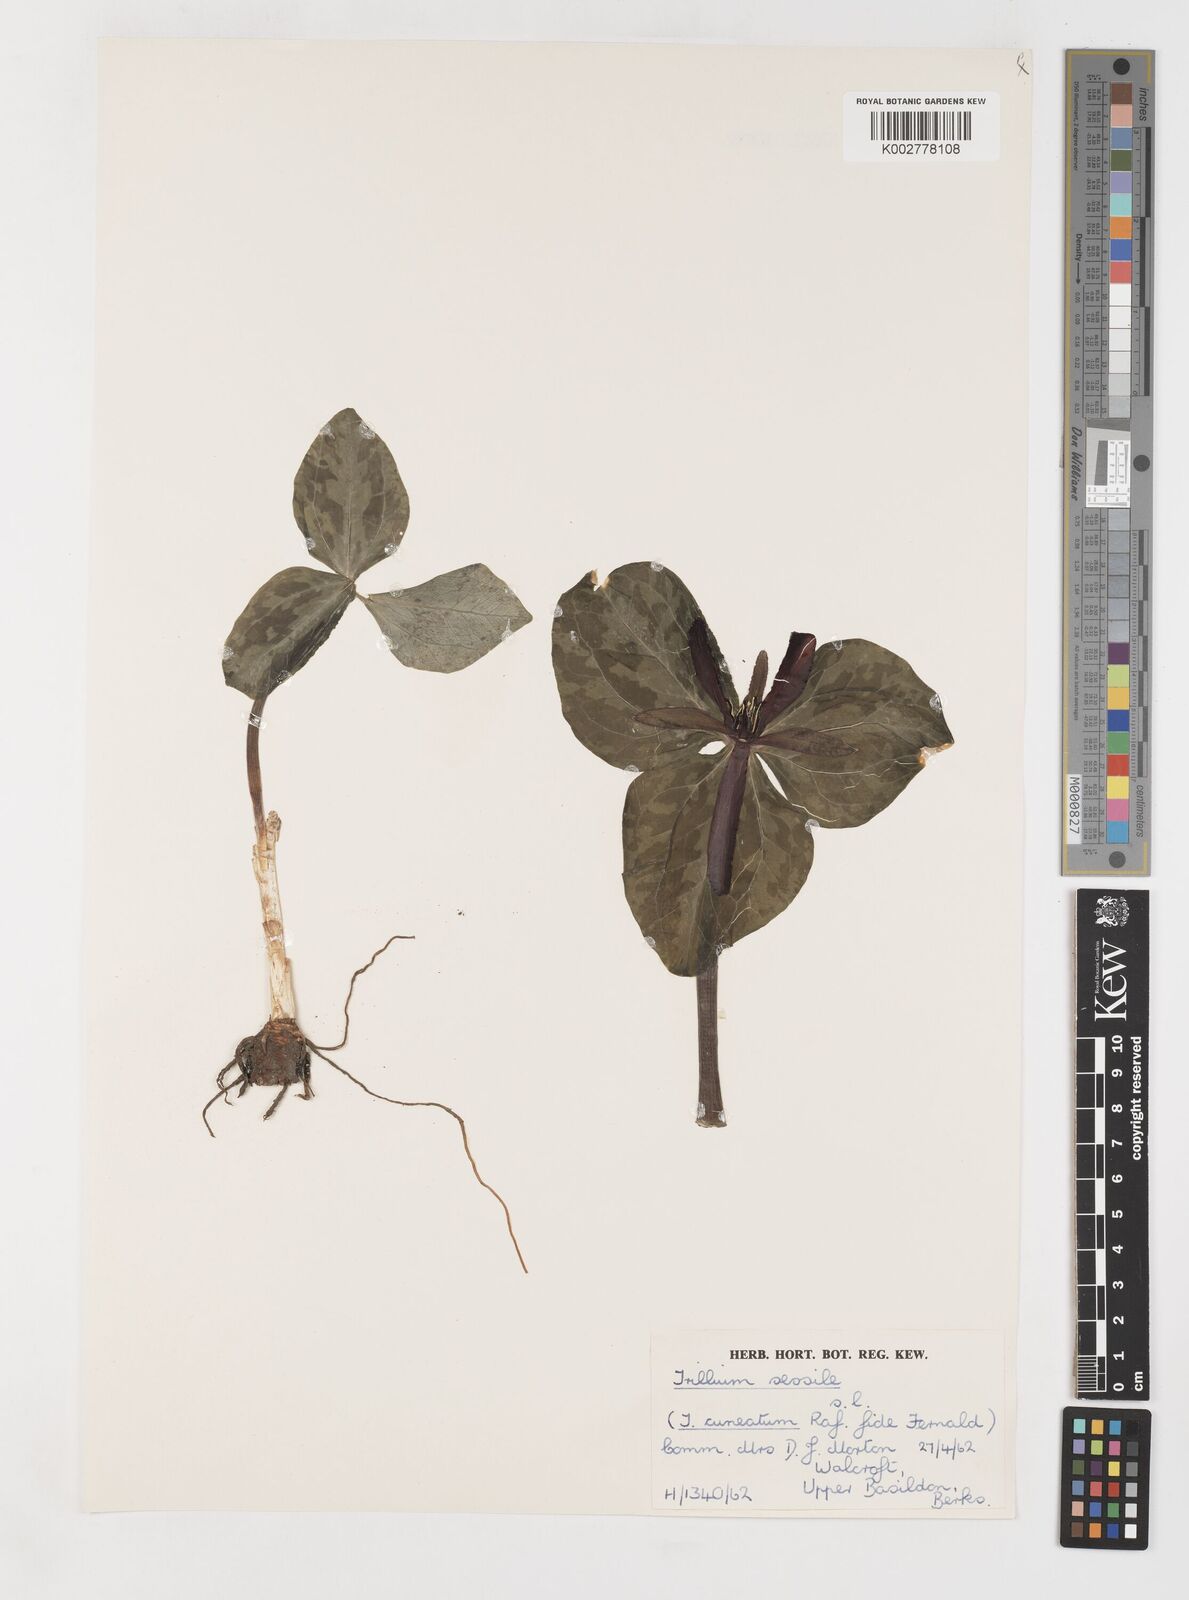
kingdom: Plantae
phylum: Tracheophyta
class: Liliopsida
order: Liliales
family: Melanthiaceae
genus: Trillium
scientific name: Trillium sessile
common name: Sessile trillium
